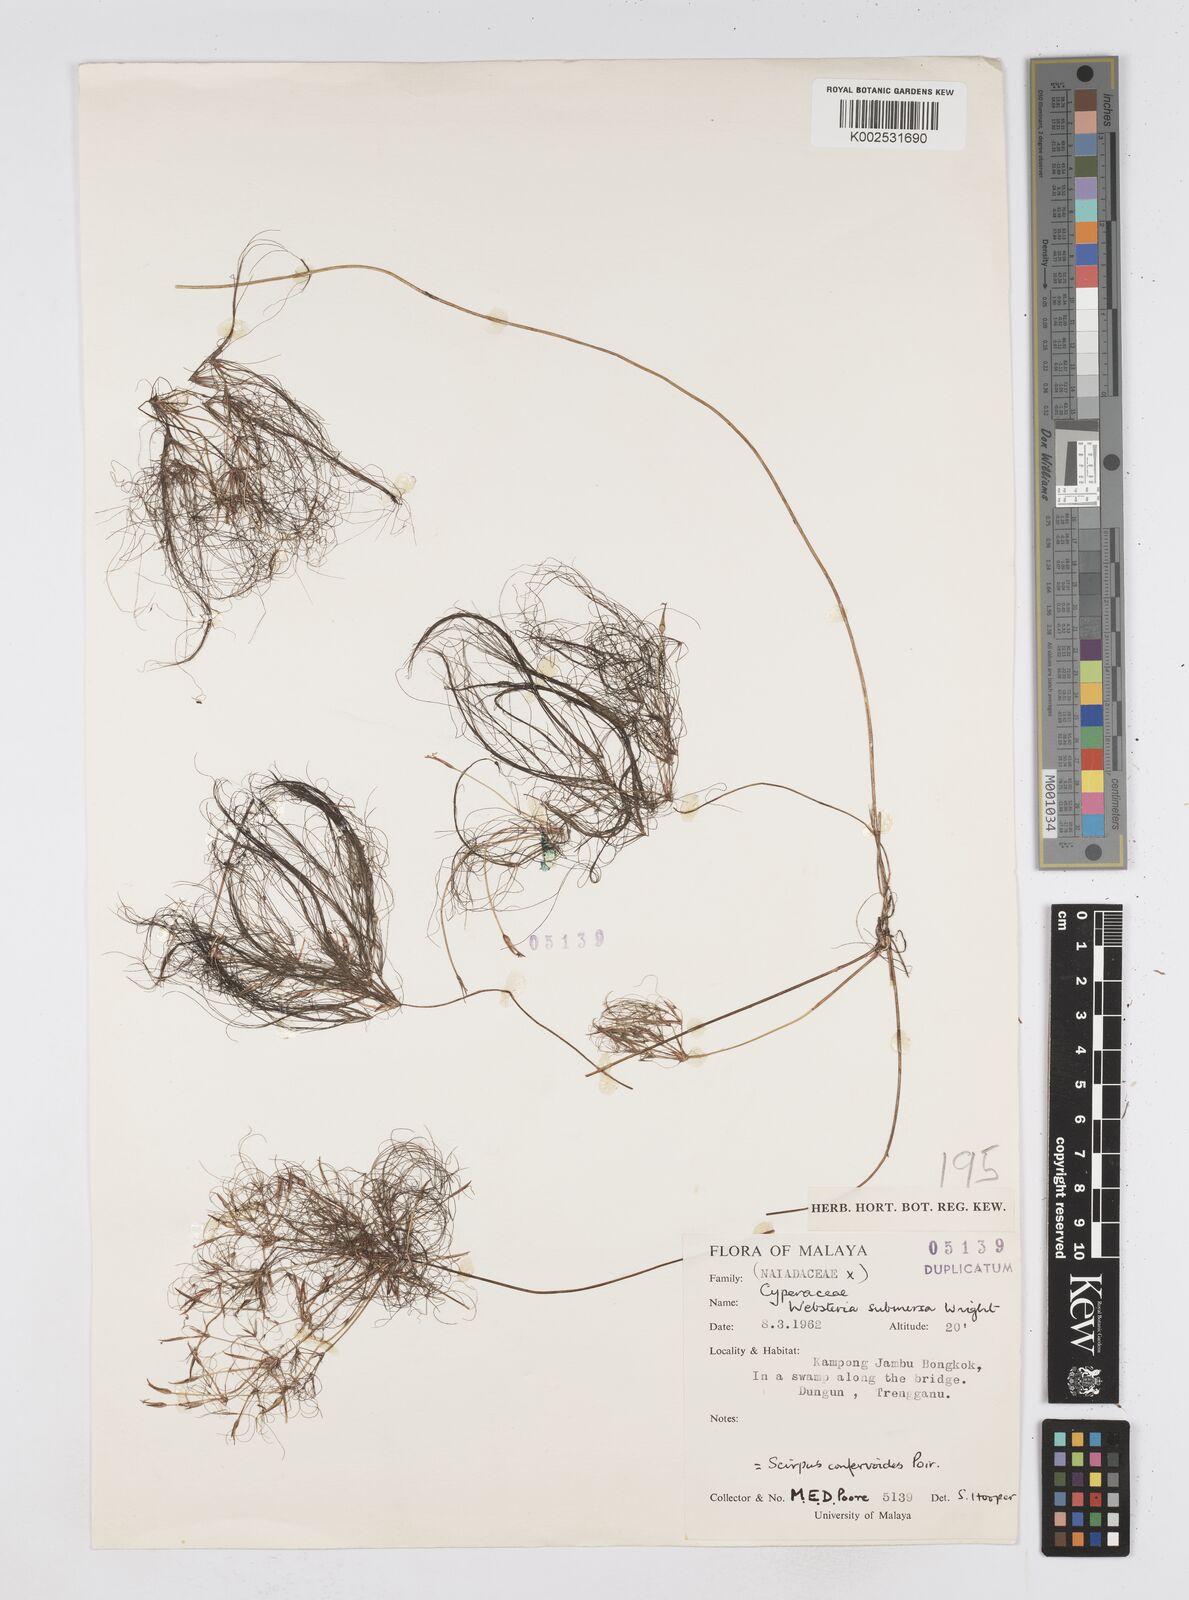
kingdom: Plantae
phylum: Tracheophyta
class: Liliopsida
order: Poales
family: Cyperaceae
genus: Eleocharis
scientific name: Eleocharis confervoides
